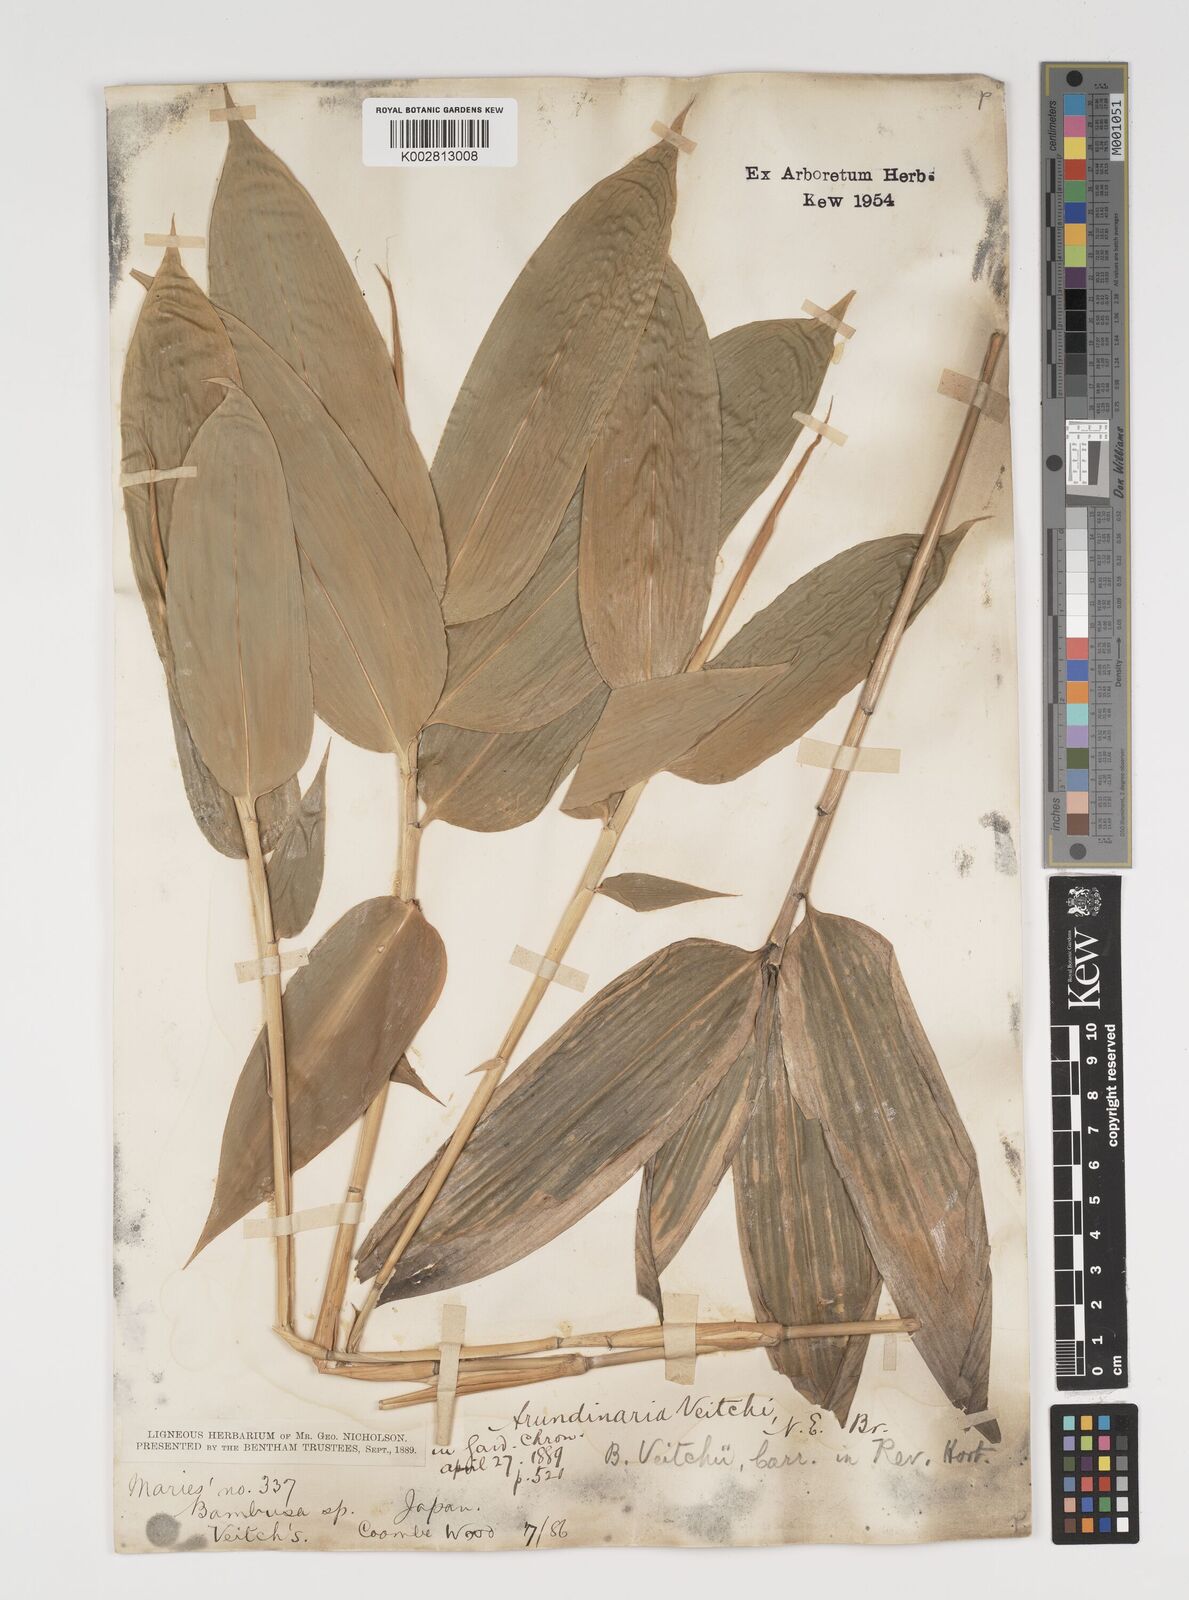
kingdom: Plantae
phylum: Tracheophyta
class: Liliopsida
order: Poales
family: Poaceae
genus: Sasa
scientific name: Sasa veitchii
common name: Veitch's bamboo
